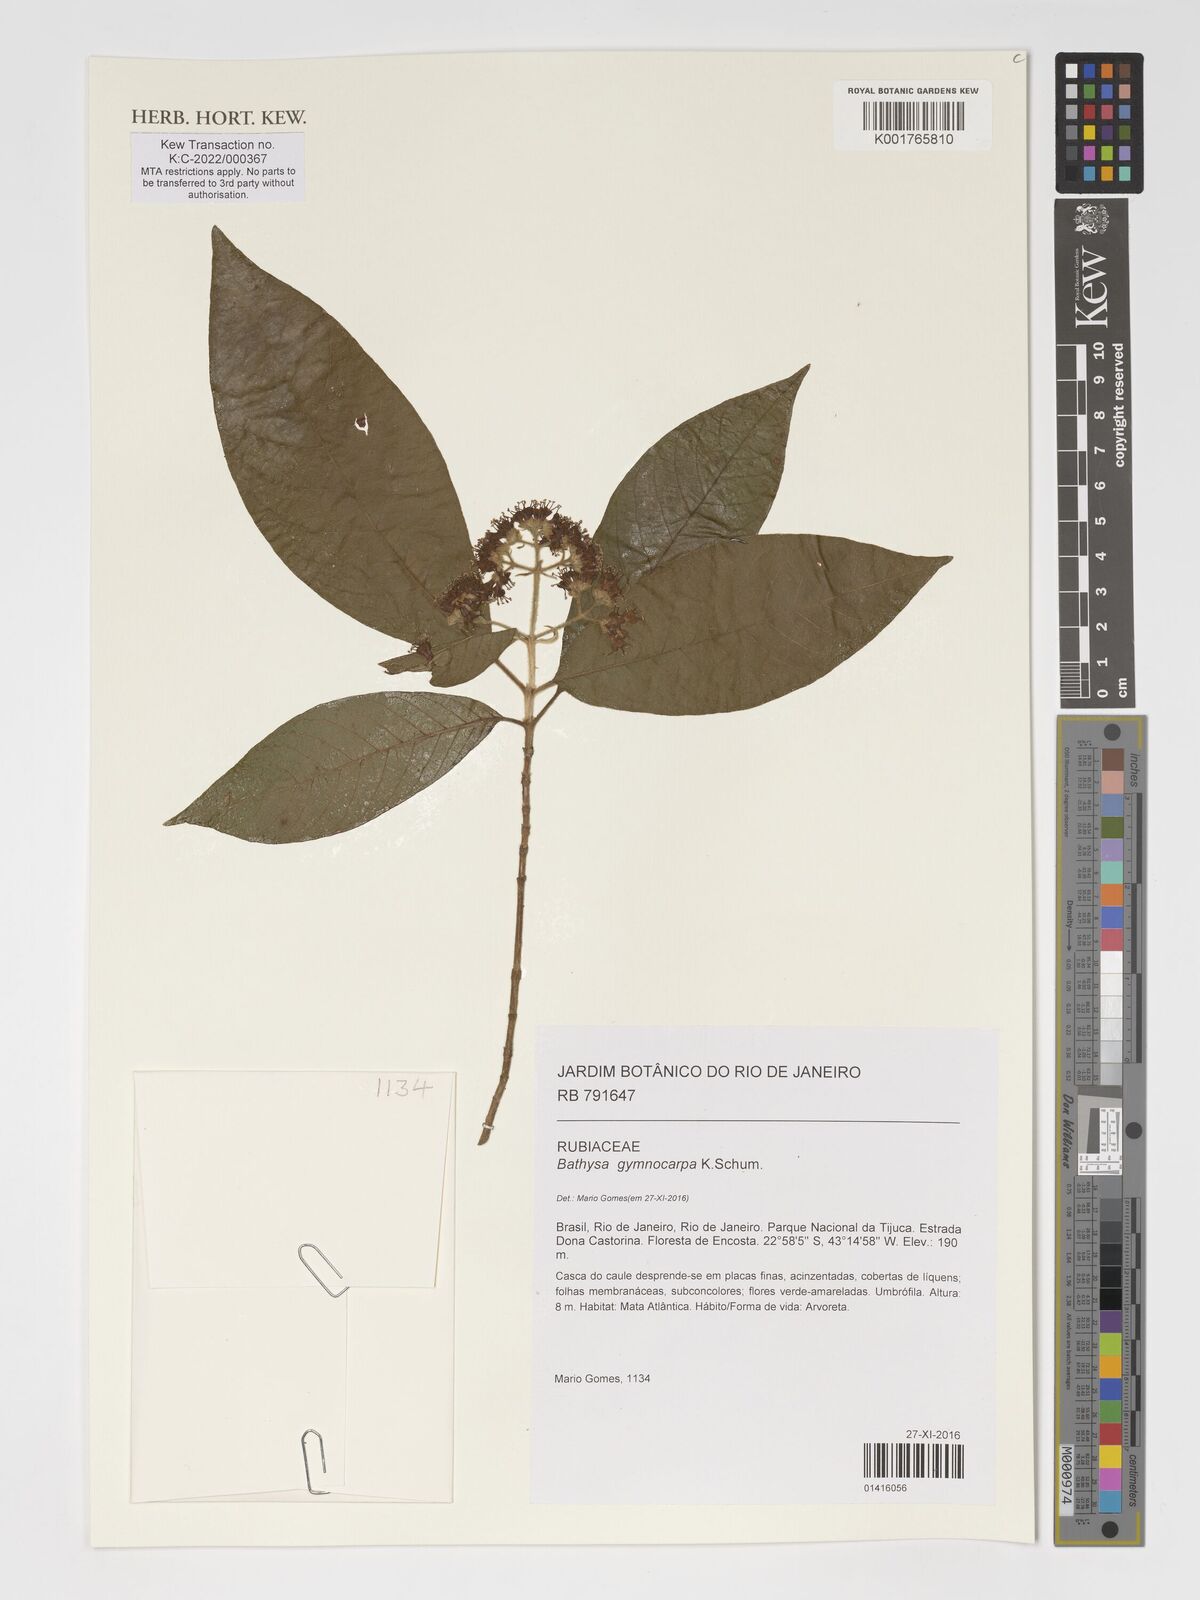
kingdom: Plantae
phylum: Tracheophyta
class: Magnoliopsida
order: Gentianales
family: Rubiaceae
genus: Bathysa
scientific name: Bathysa gymnocarpa
